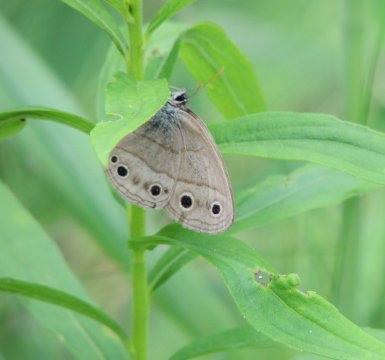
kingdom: Animalia
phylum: Arthropoda
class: Insecta
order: Lepidoptera
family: Nymphalidae
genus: Euptychia
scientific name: Euptychia cymela
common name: Little Wood Satyr
